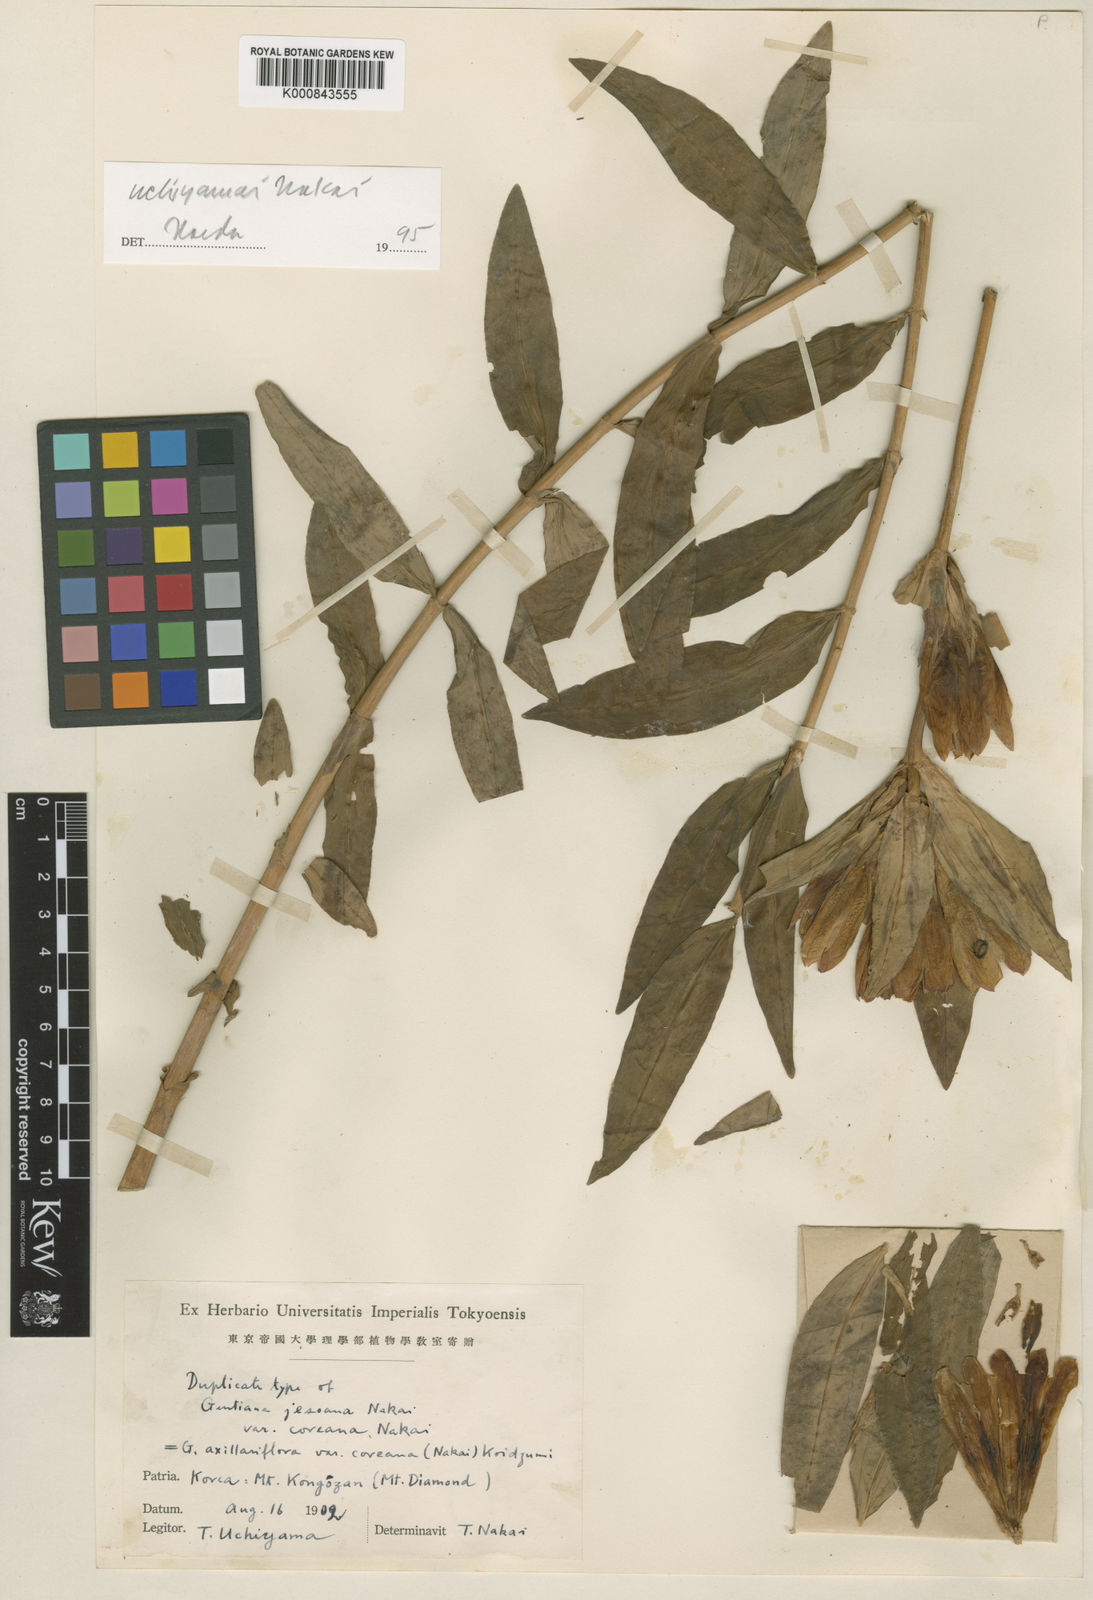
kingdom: Plantae
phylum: Tracheophyta
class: Magnoliopsida
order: Gentianales
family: Gentianaceae
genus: Gentiana
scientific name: Gentiana triflora
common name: Three-flower gentian
